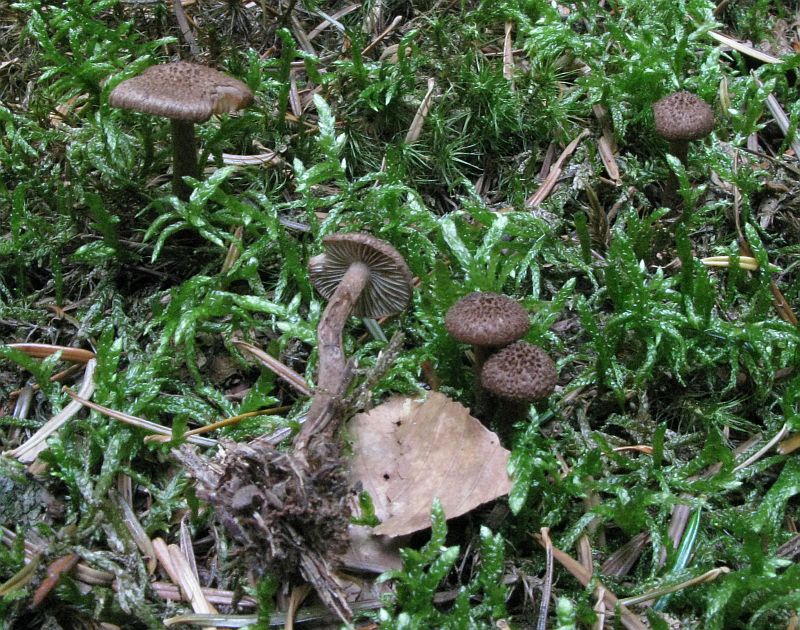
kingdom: Fungi
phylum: Basidiomycota
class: Agaricomycetes
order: Agaricales
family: Inocybaceae
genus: Inocybe
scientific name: Inocybe stellatospora
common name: spidsskællet trævlhat
